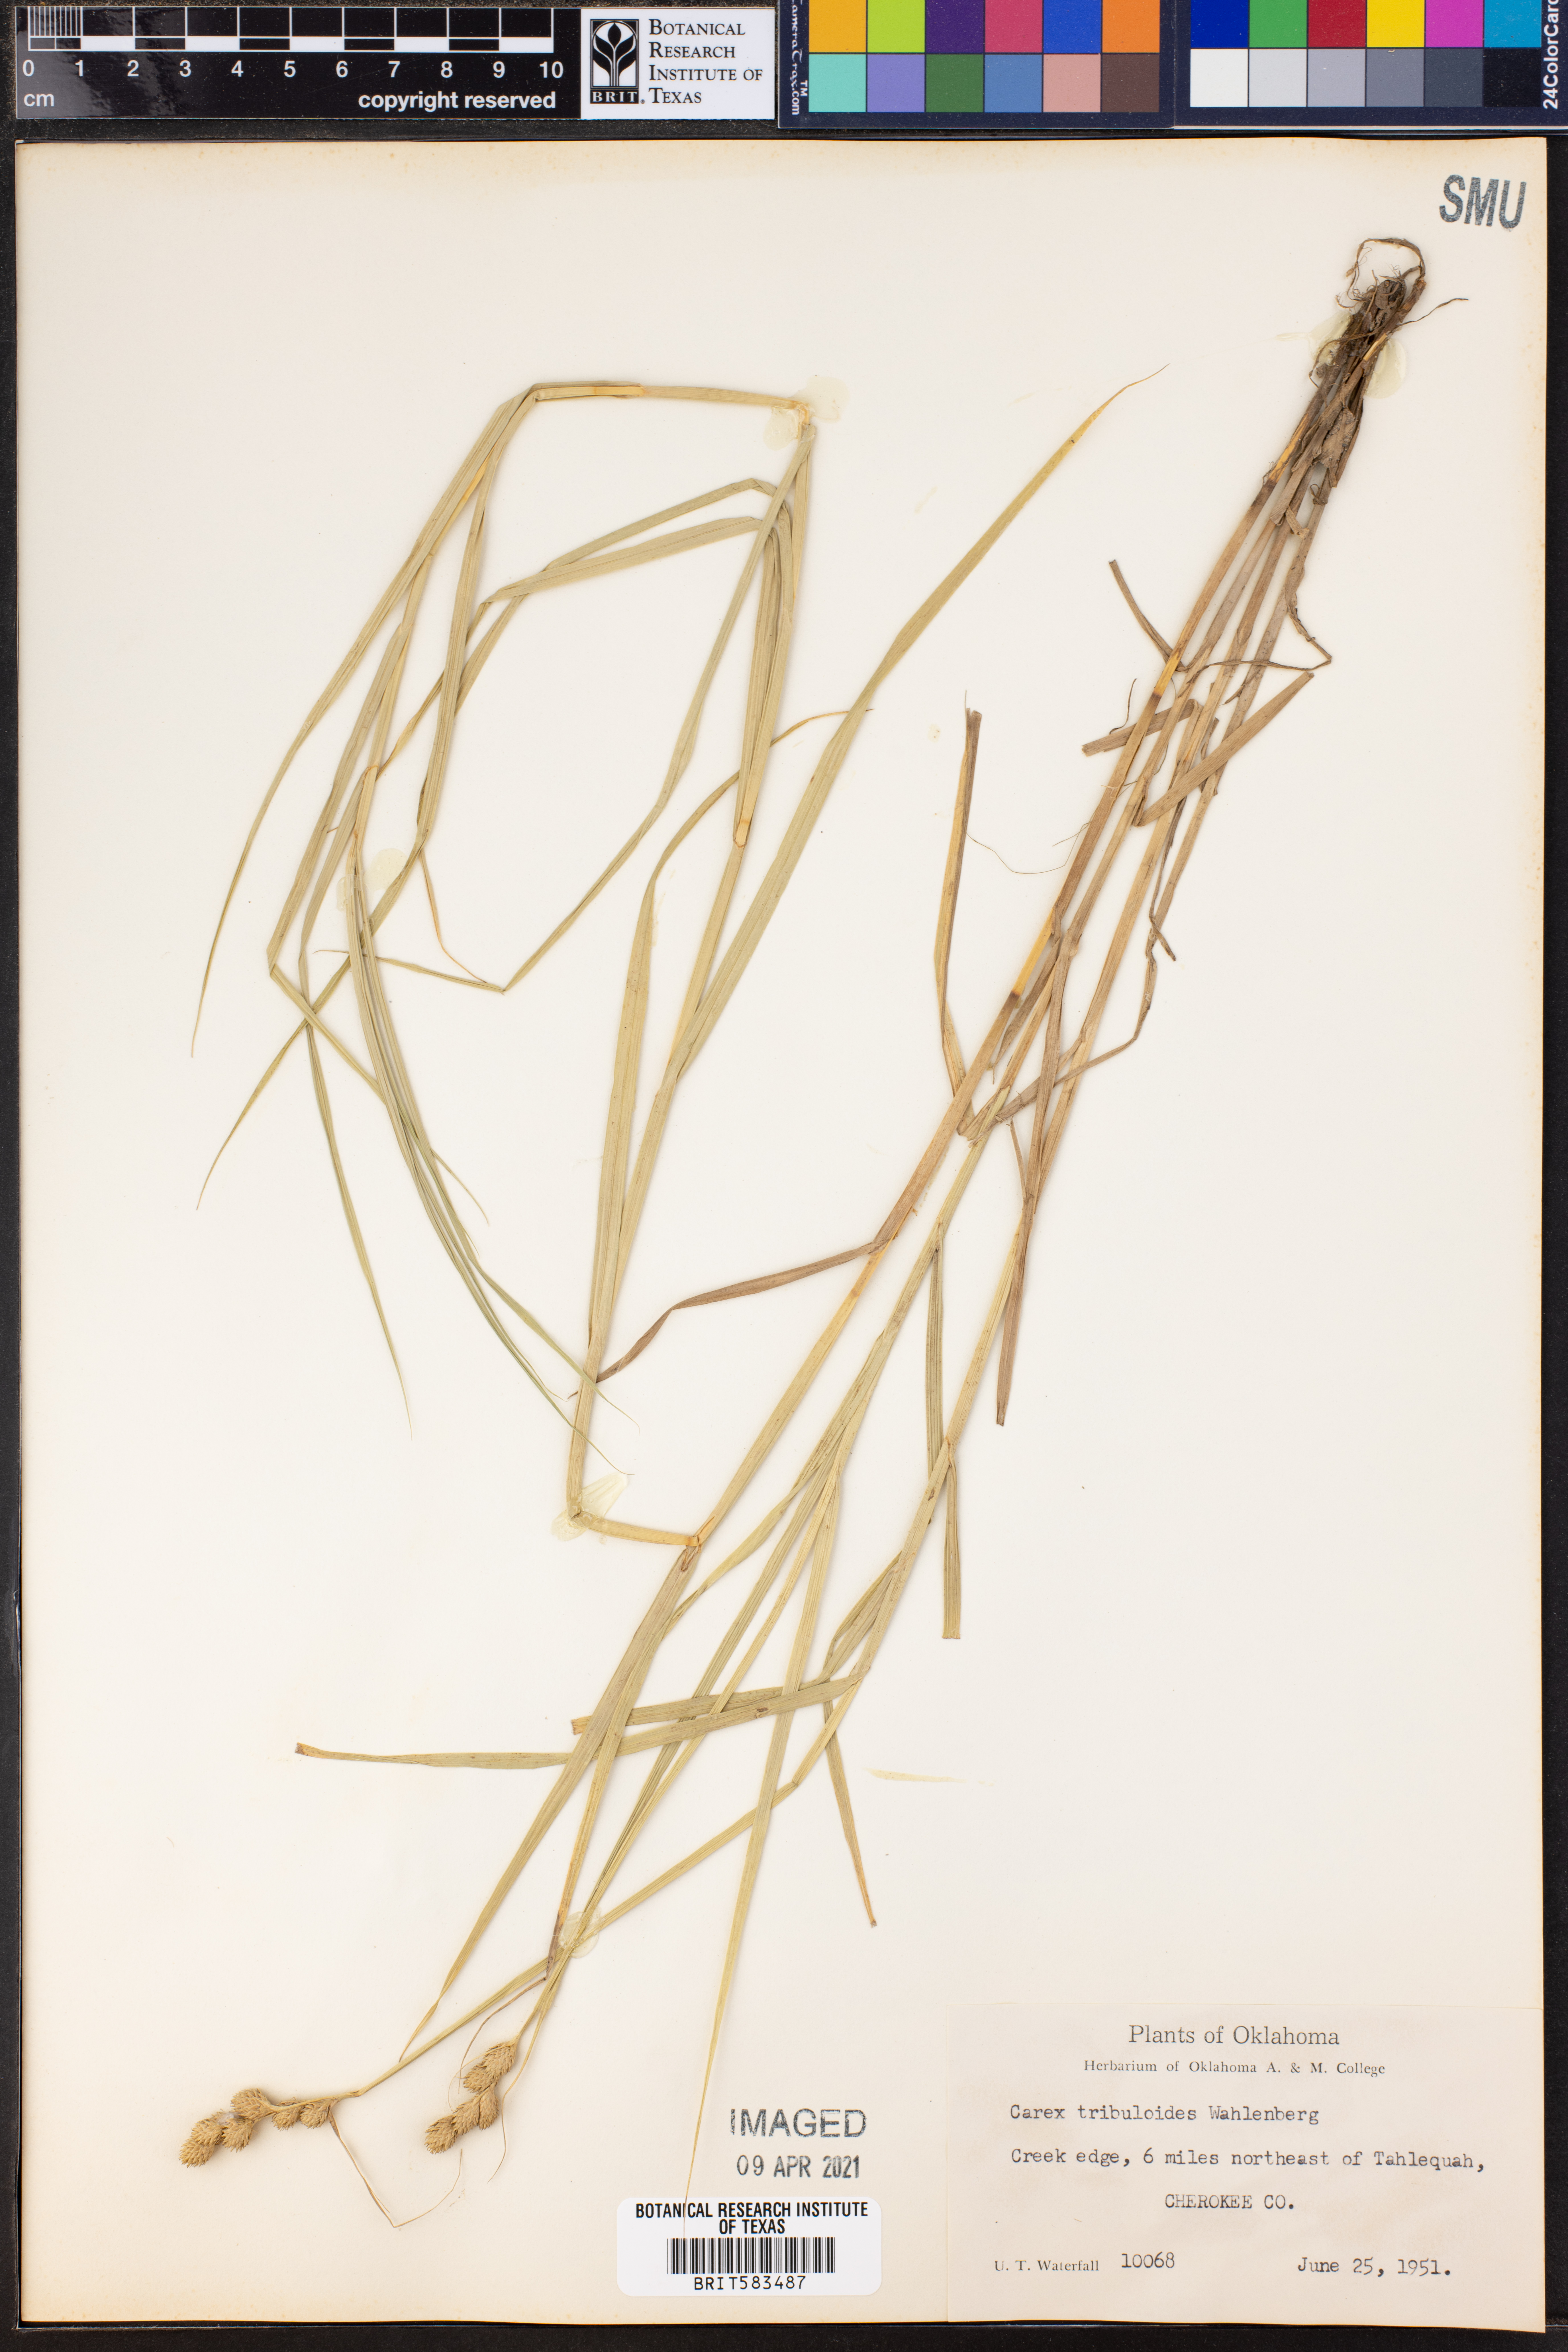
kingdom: Plantae
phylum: Tracheophyta
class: Liliopsida
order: Poales
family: Cyperaceae
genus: Carex
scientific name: Carex tribuloides
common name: Blunt broom sedge
